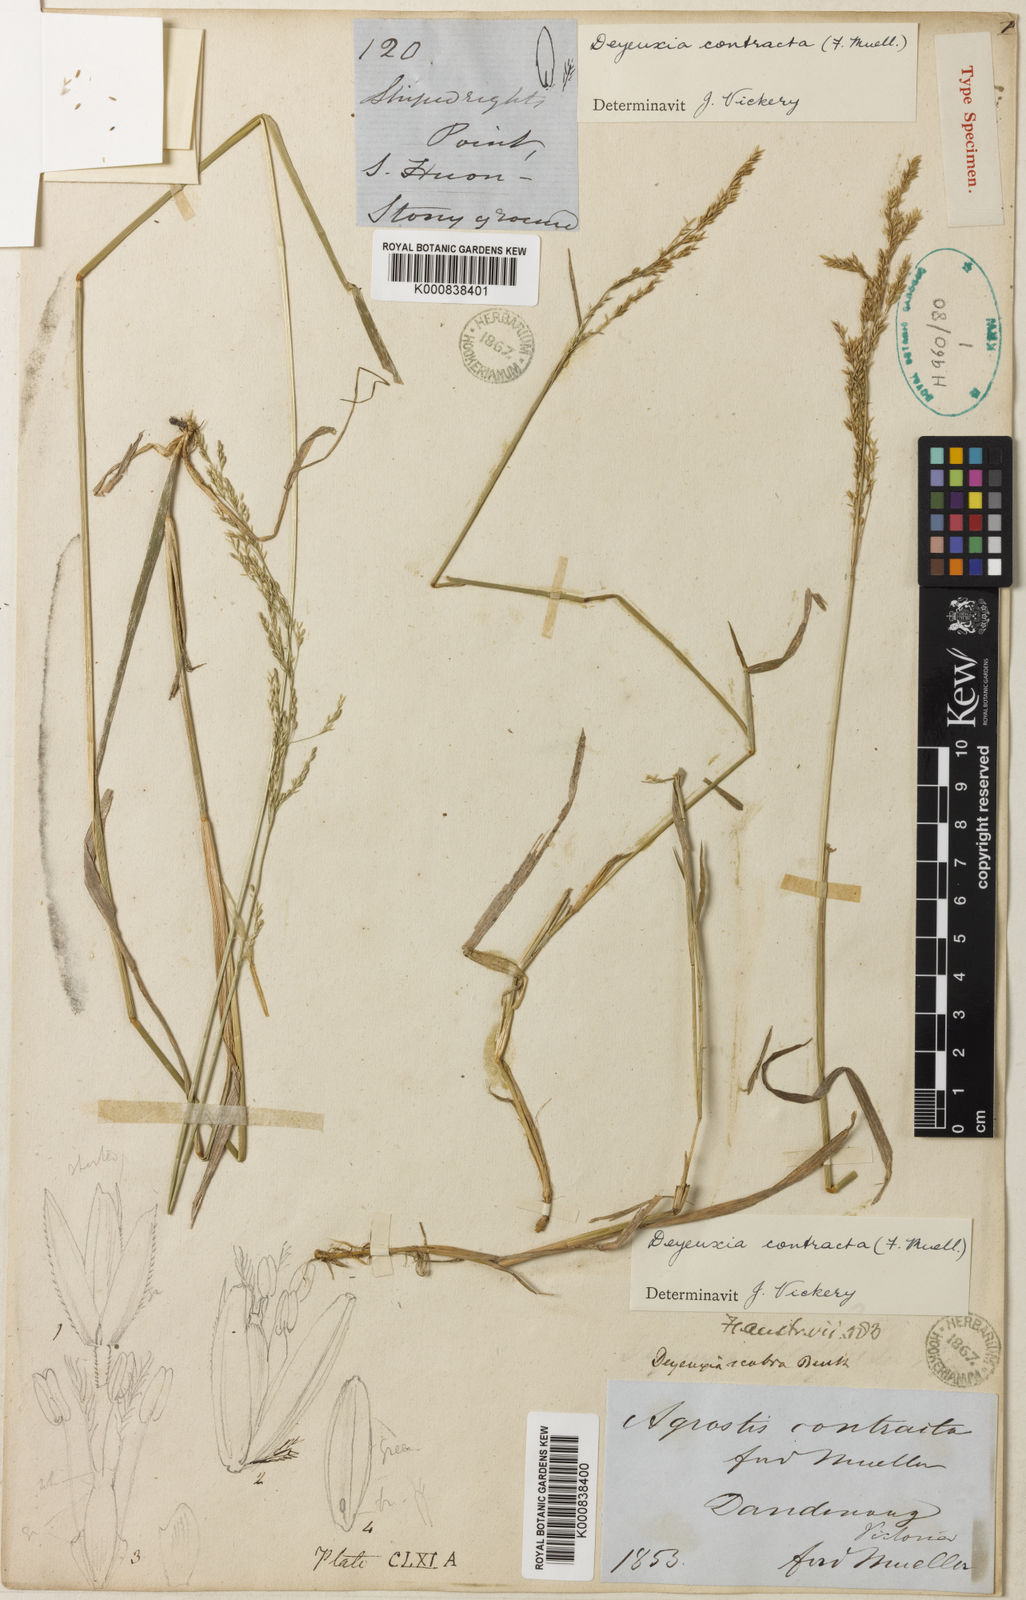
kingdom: Plantae
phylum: Tracheophyta
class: Liliopsida
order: Poales
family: Poaceae
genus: Calamagrostis
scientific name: Calamagrostis
